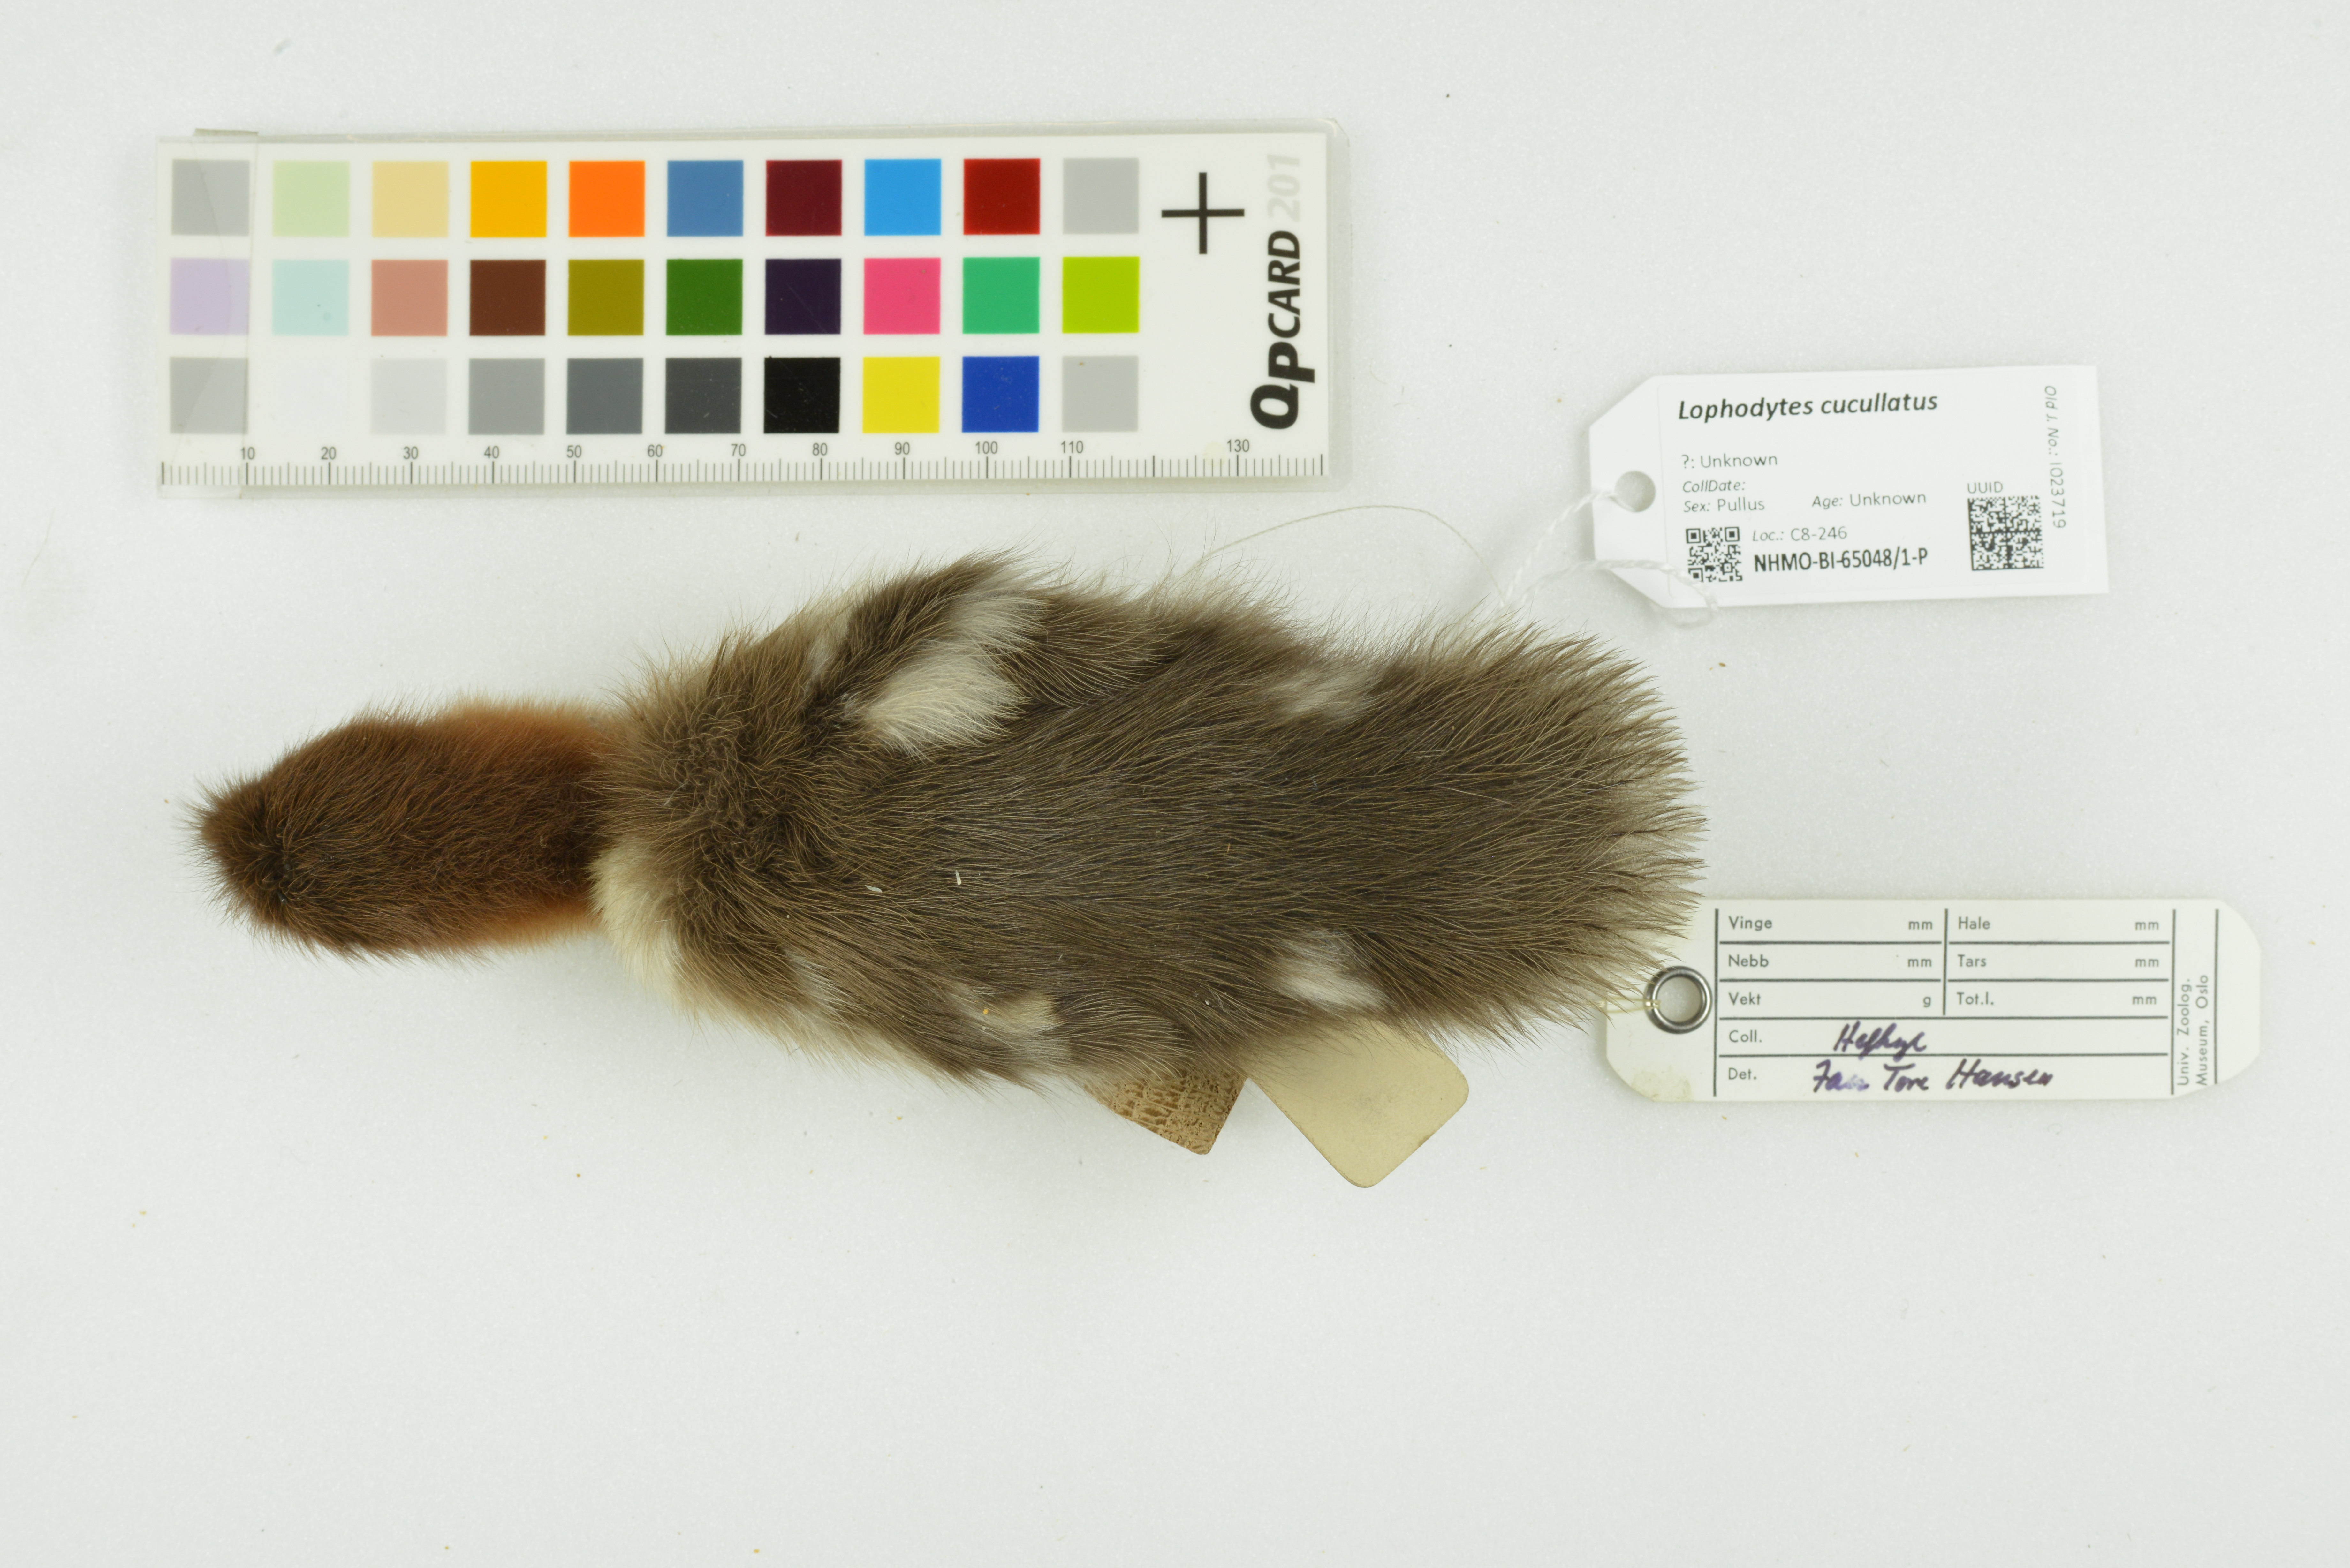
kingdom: Animalia
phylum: Chordata
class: Aves
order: Anseriformes
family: Anatidae
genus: Lophodytes
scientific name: Lophodytes cucullatus
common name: Hooded merganser
